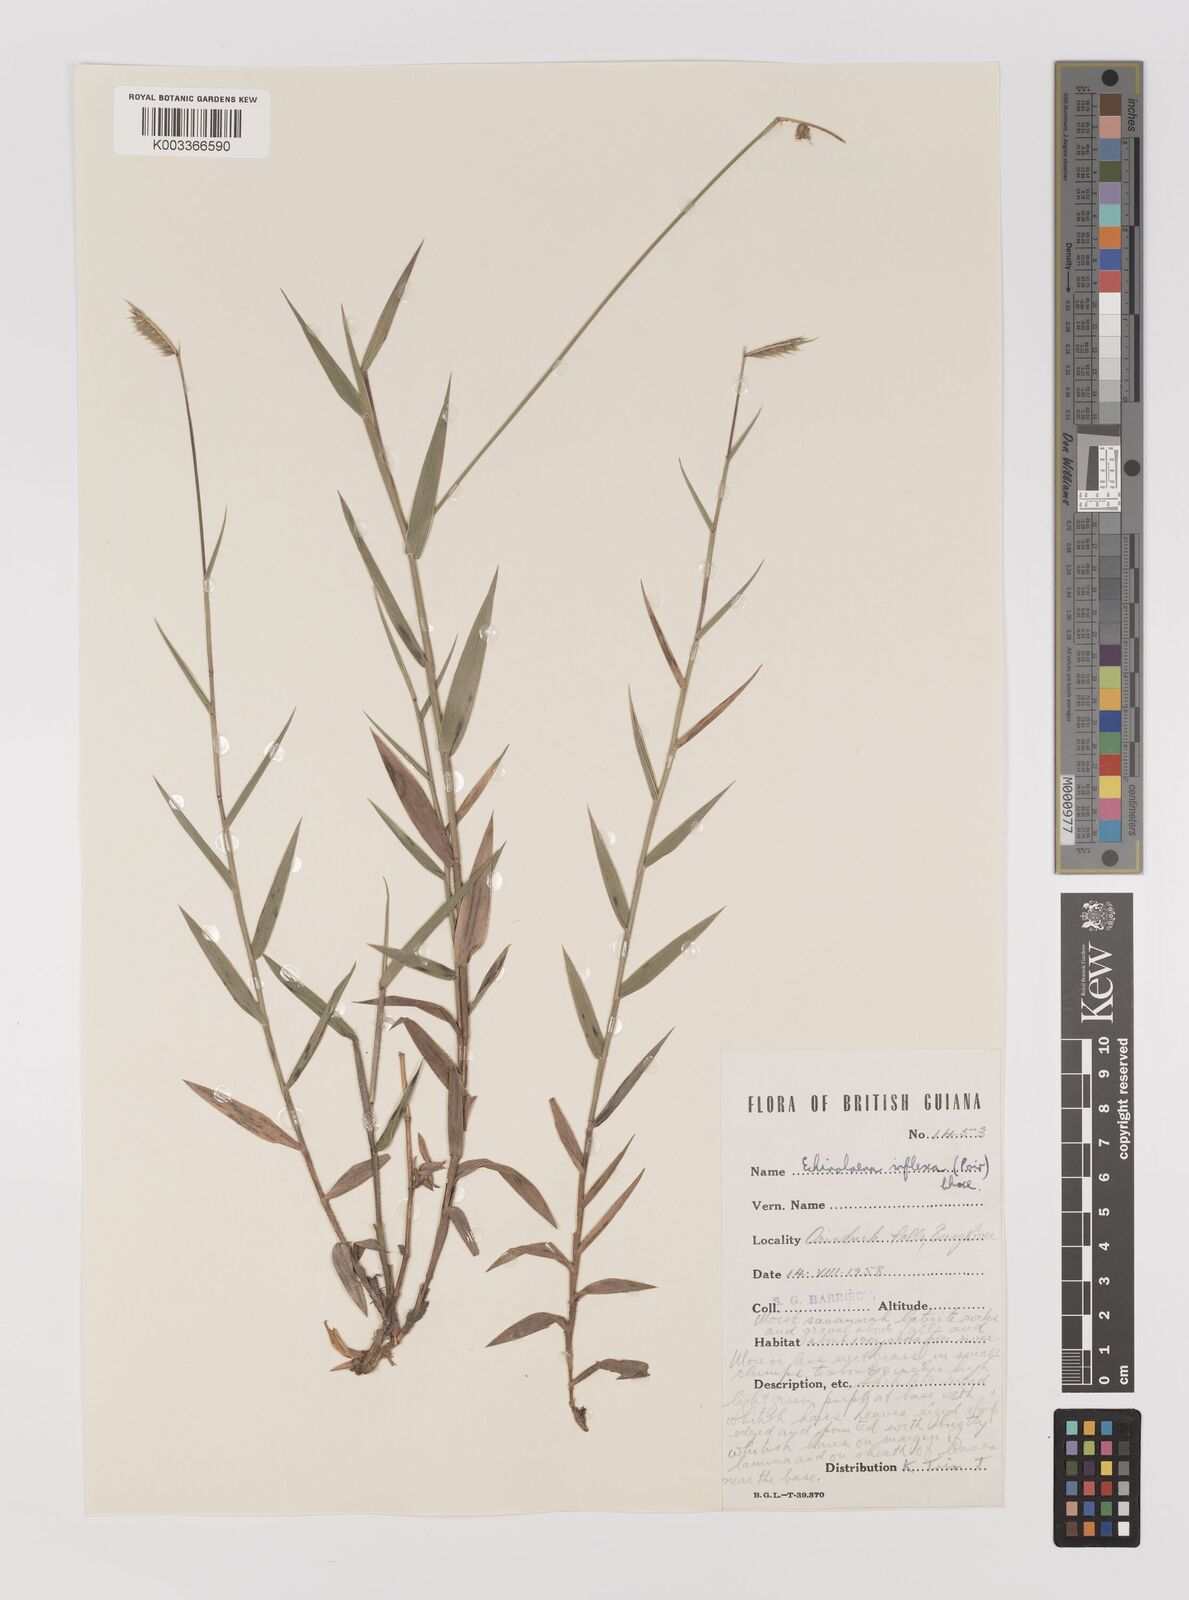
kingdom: Plantae
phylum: Tracheophyta
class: Liliopsida
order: Poales
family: Poaceae
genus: Echinolaena
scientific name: Echinolaena inflexa
